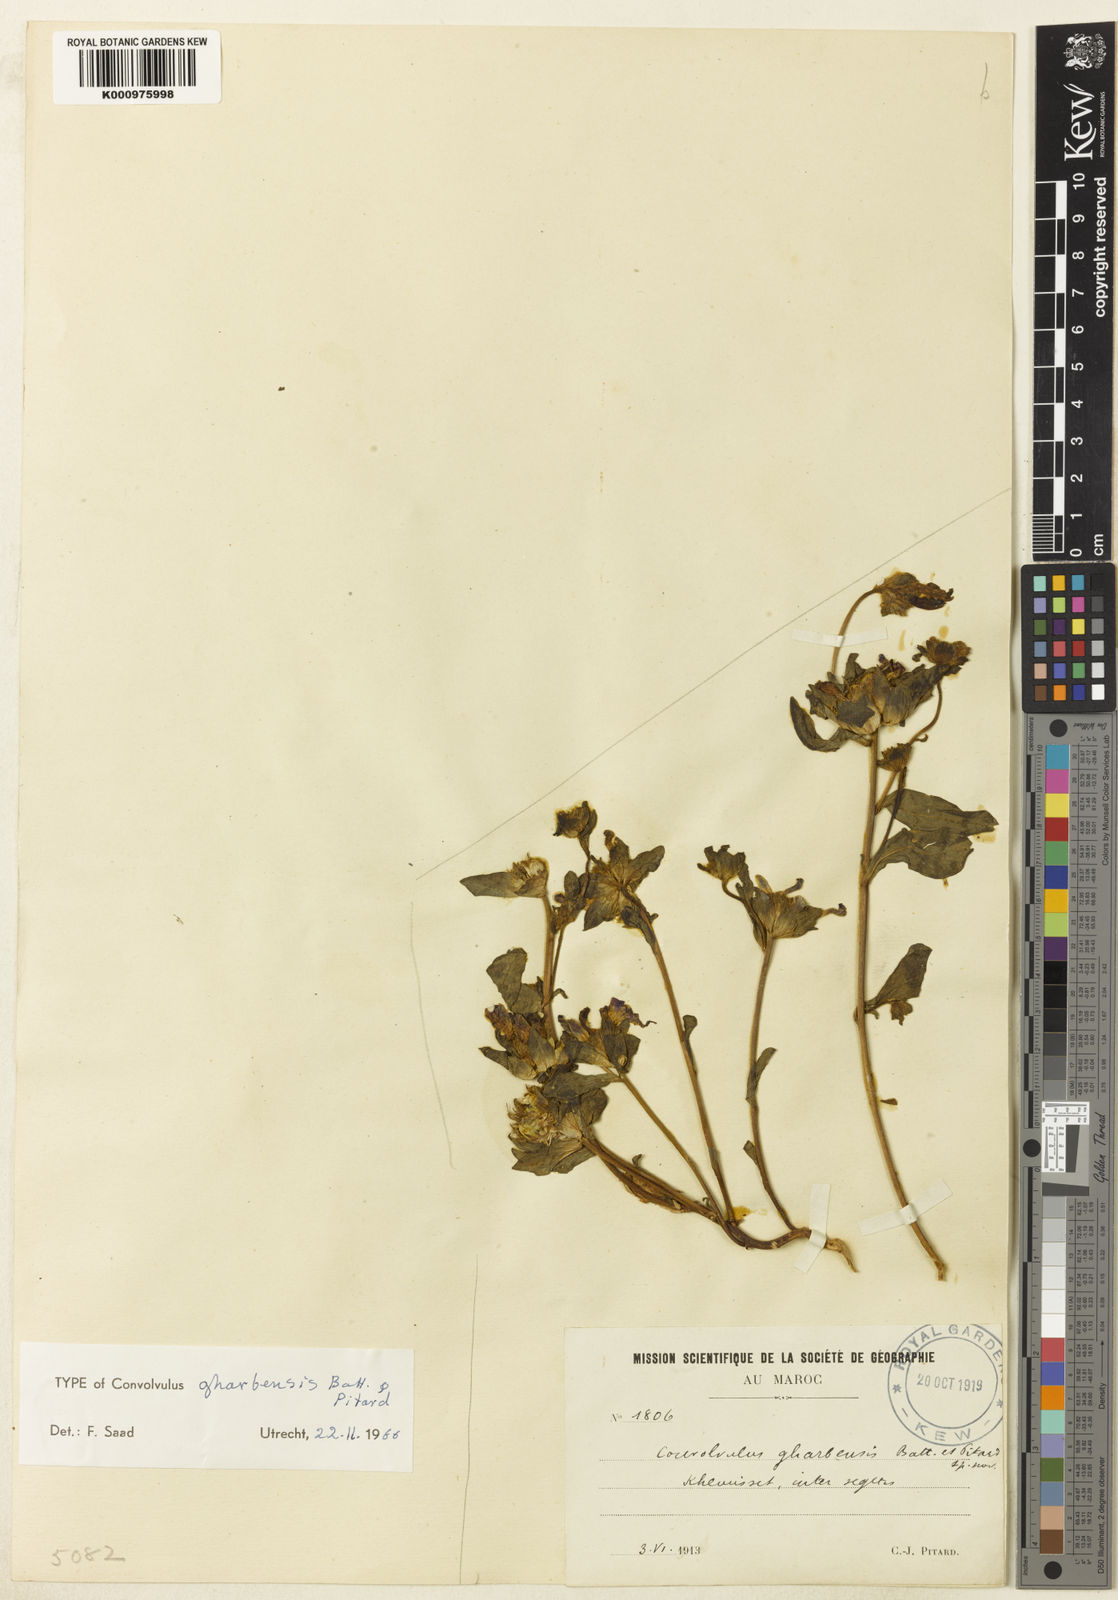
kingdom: Plantae
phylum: Tracheophyta
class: Magnoliopsida
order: Solanales
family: Convolvulaceae
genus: Convolvulus
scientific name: Convolvulus gharbensis
